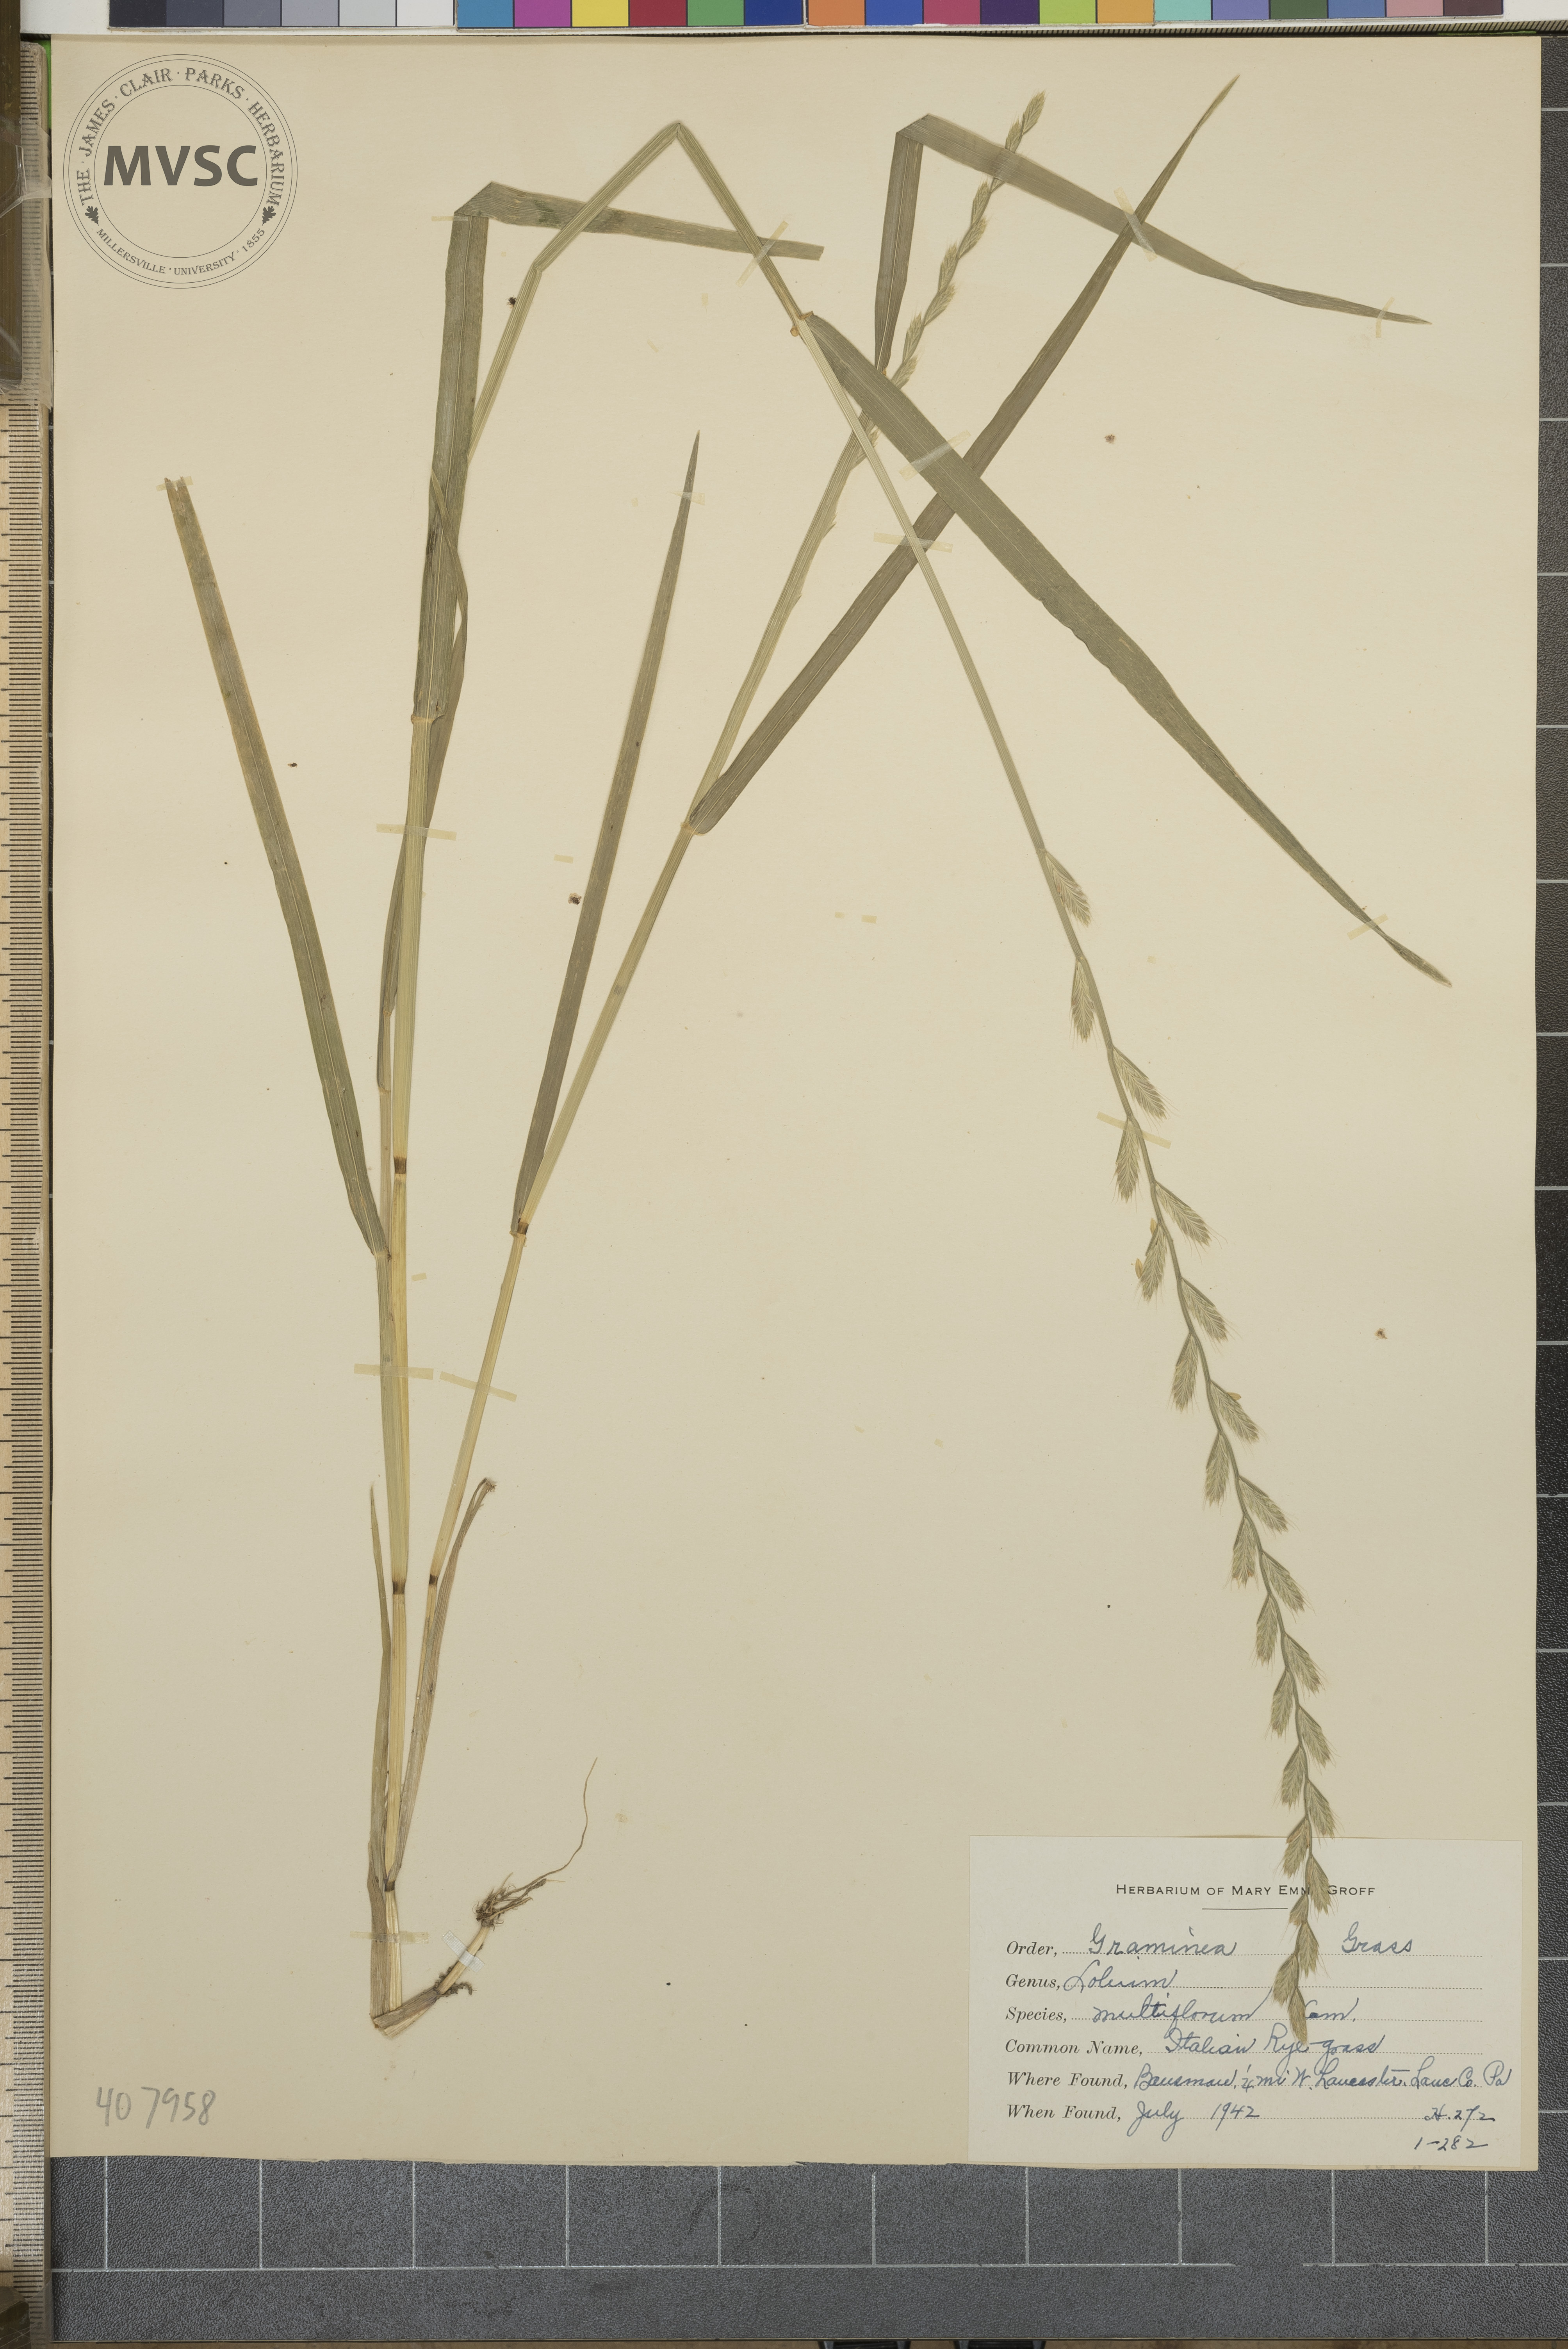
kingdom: Plantae
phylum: Tracheophyta
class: Liliopsida
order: Poales
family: Poaceae
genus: Lolium
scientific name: Lolium multiflorum
